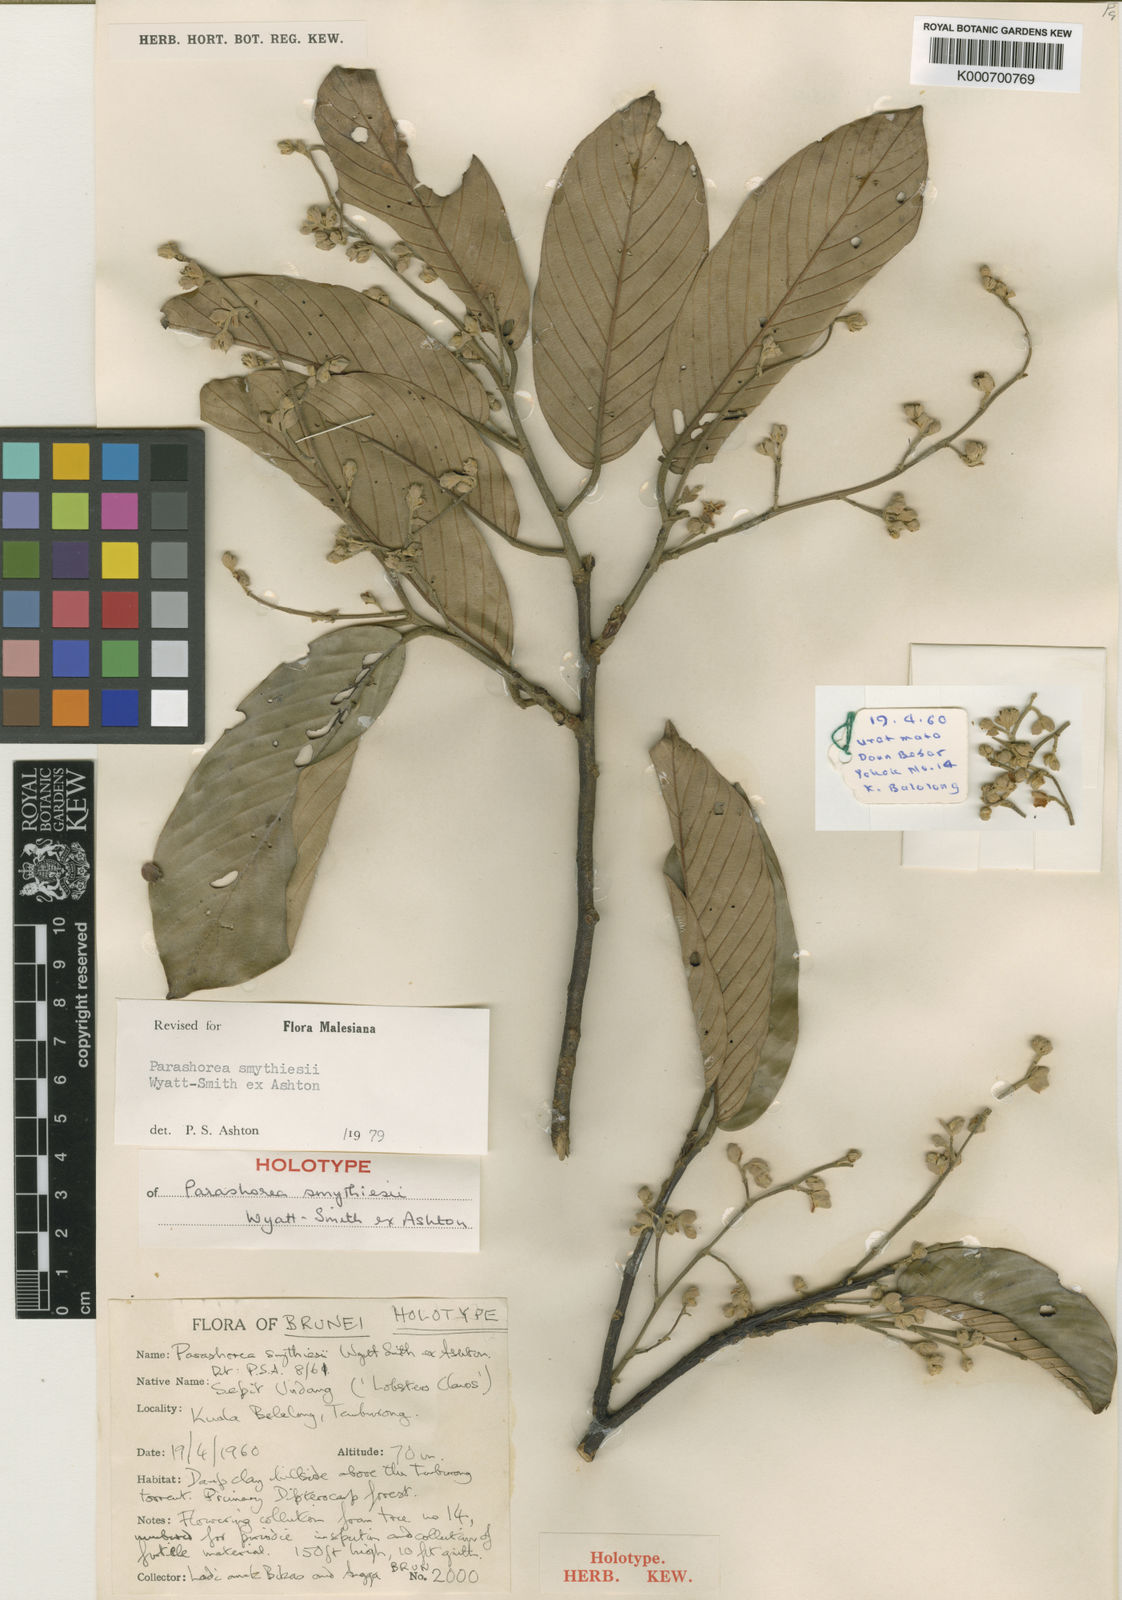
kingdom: Plantae
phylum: Tracheophyta
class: Magnoliopsida
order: Malvales
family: Dipterocarpaceae
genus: Parashorea
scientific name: Parashorea smythiesii
